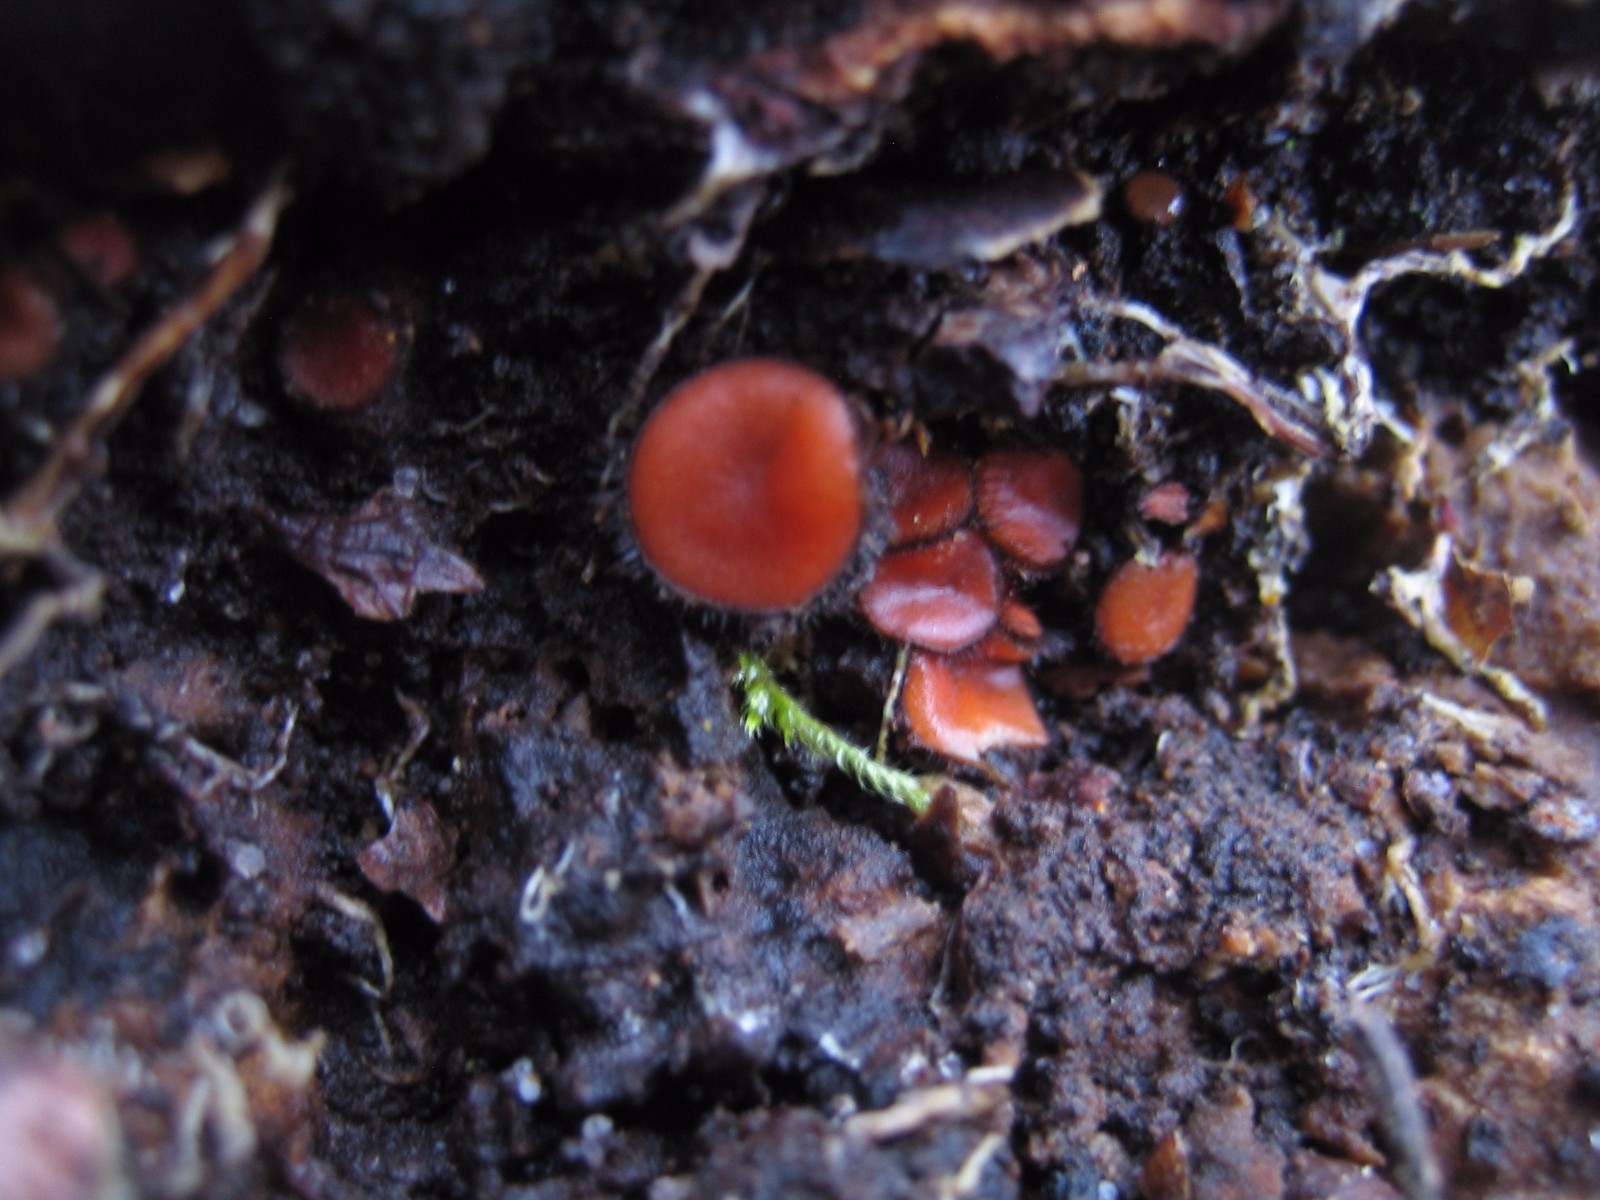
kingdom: Fungi
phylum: Ascomycota
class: Pezizomycetes
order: Pezizales
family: Pyronemataceae
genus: Scutellinia
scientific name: Scutellinia
